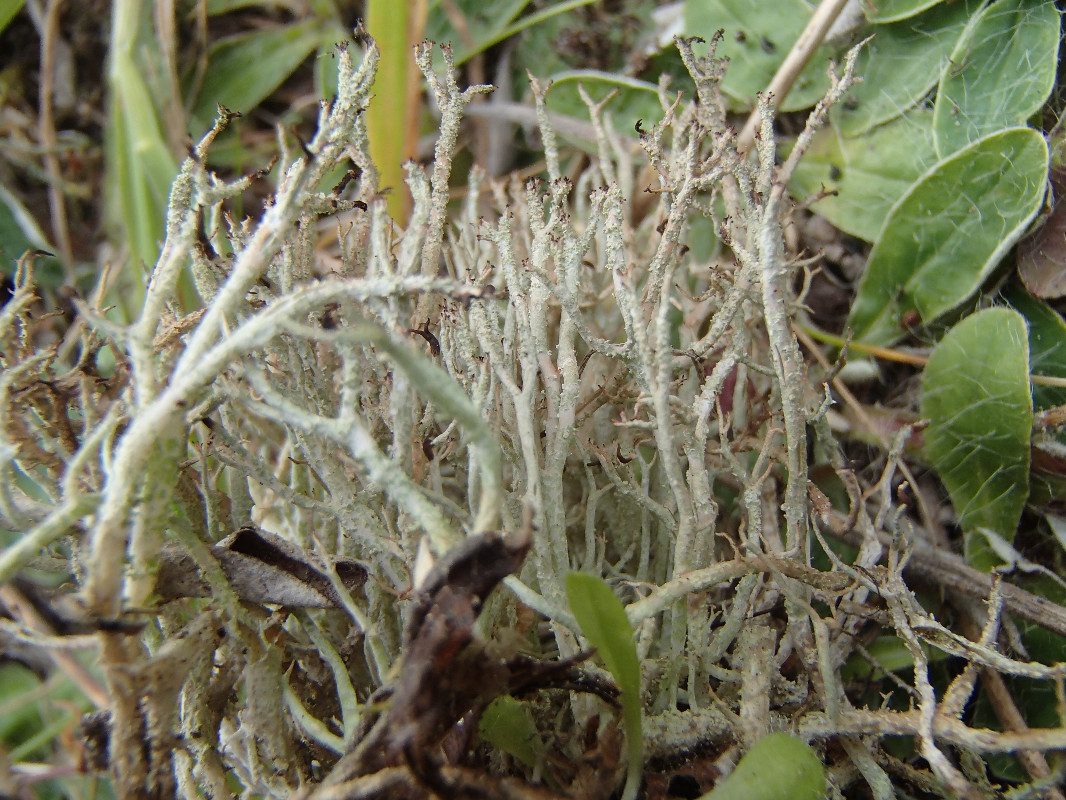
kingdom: Fungi
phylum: Ascomycota
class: Lecanoromycetes
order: Lecanorales
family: Cladoniaceae
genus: Cladonia
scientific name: Cladonia scabriuscula
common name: ru bægerlav
